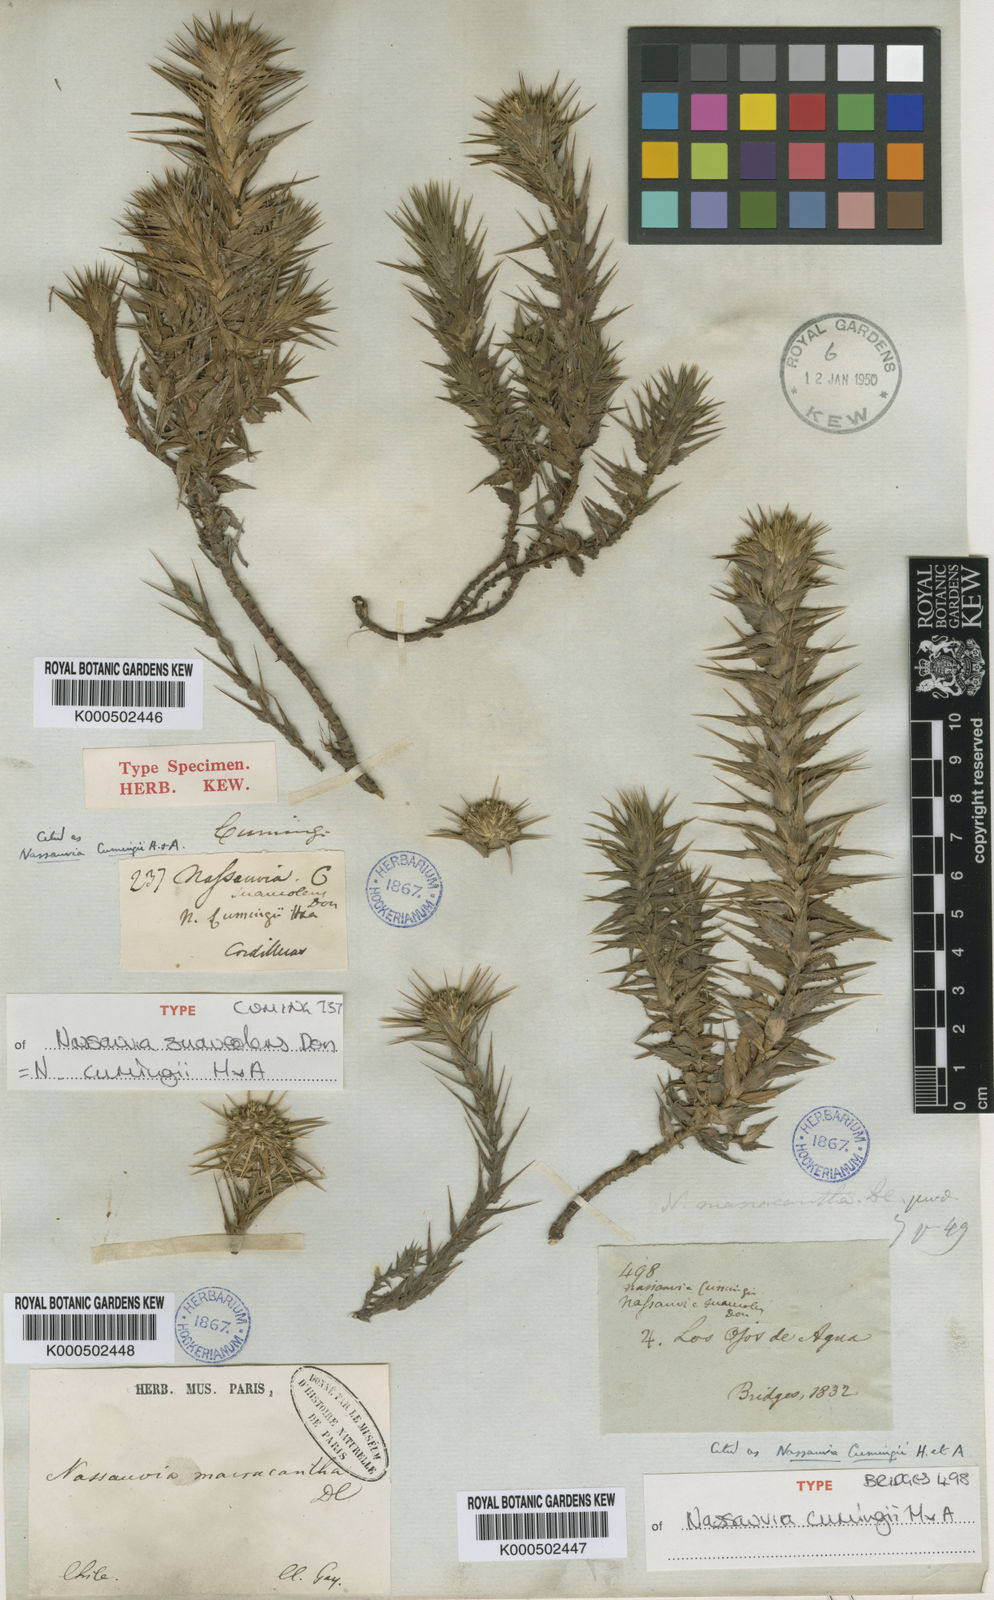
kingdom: Plantae
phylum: Tracheophyta
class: Magnoliopsida
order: Asterales
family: Asteraceae
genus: Nassauvia
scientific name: Nassauvia cumingii
